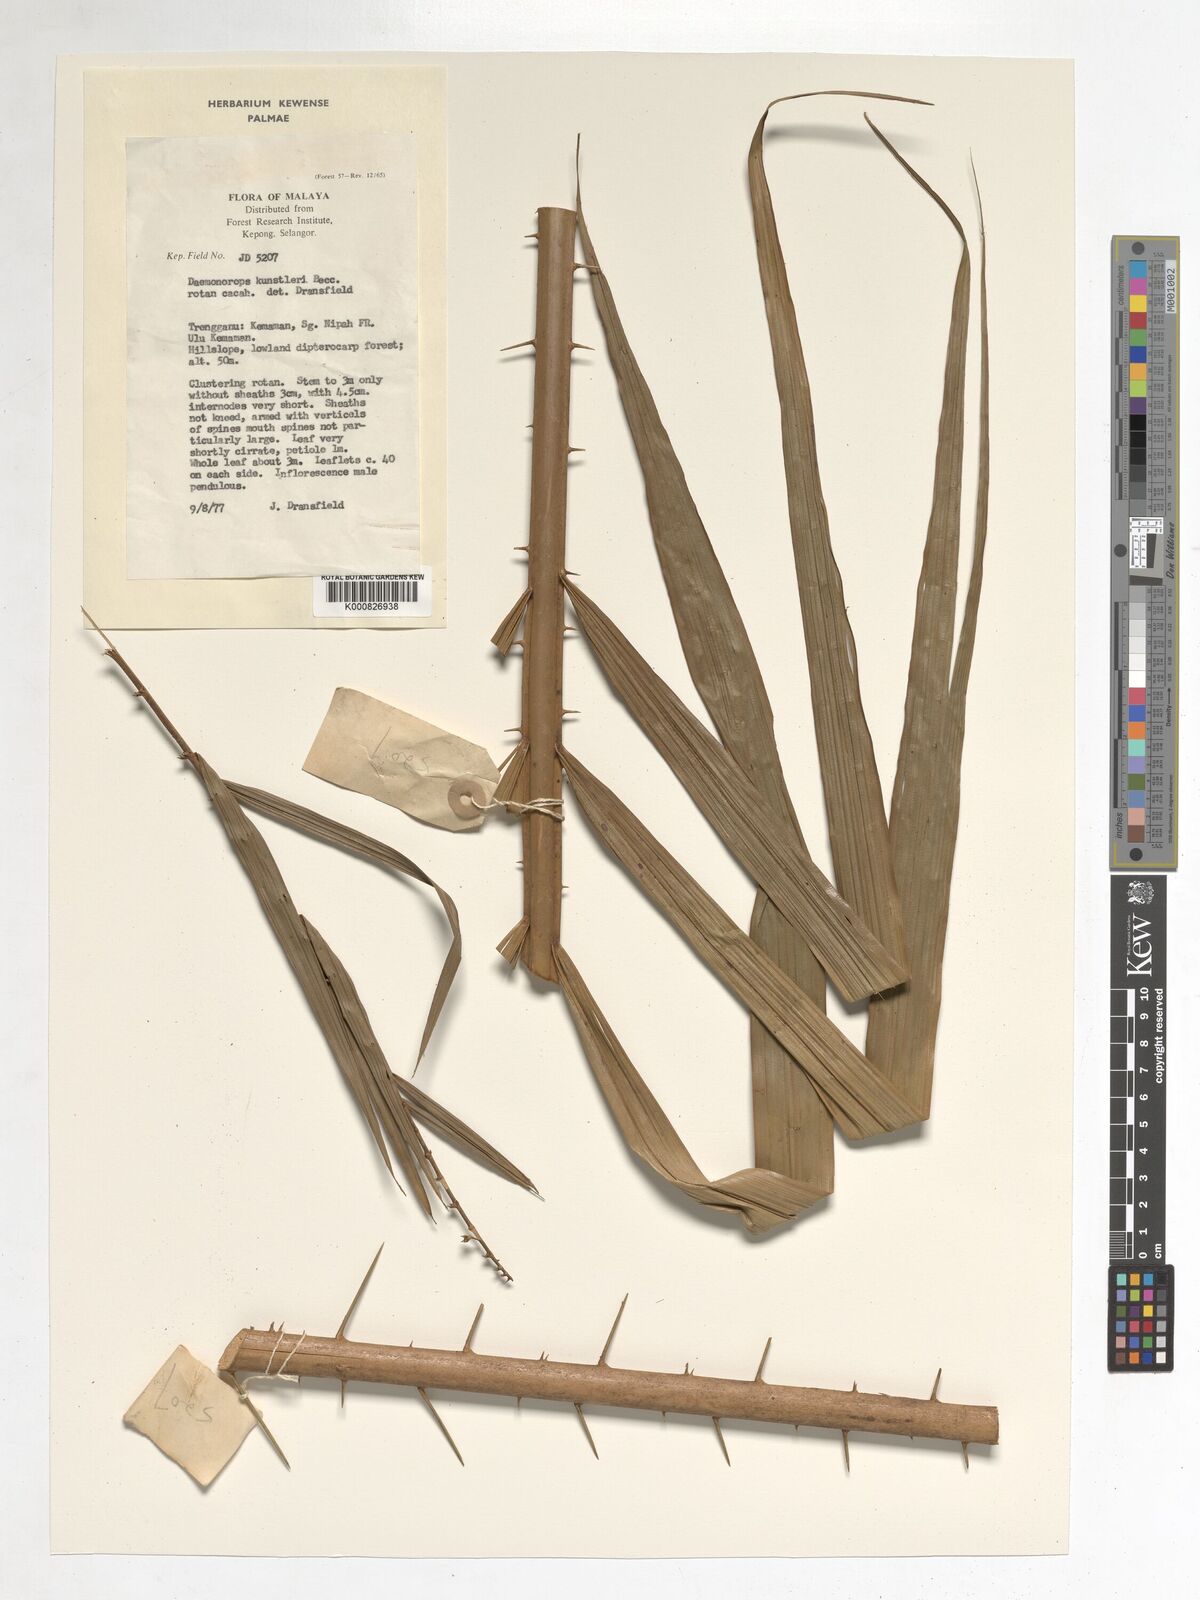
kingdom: Plantae
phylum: Tracheophyta
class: Liliopsida
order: Arecales
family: Arecaceae
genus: Calamus
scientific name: Calamus kunstleri
